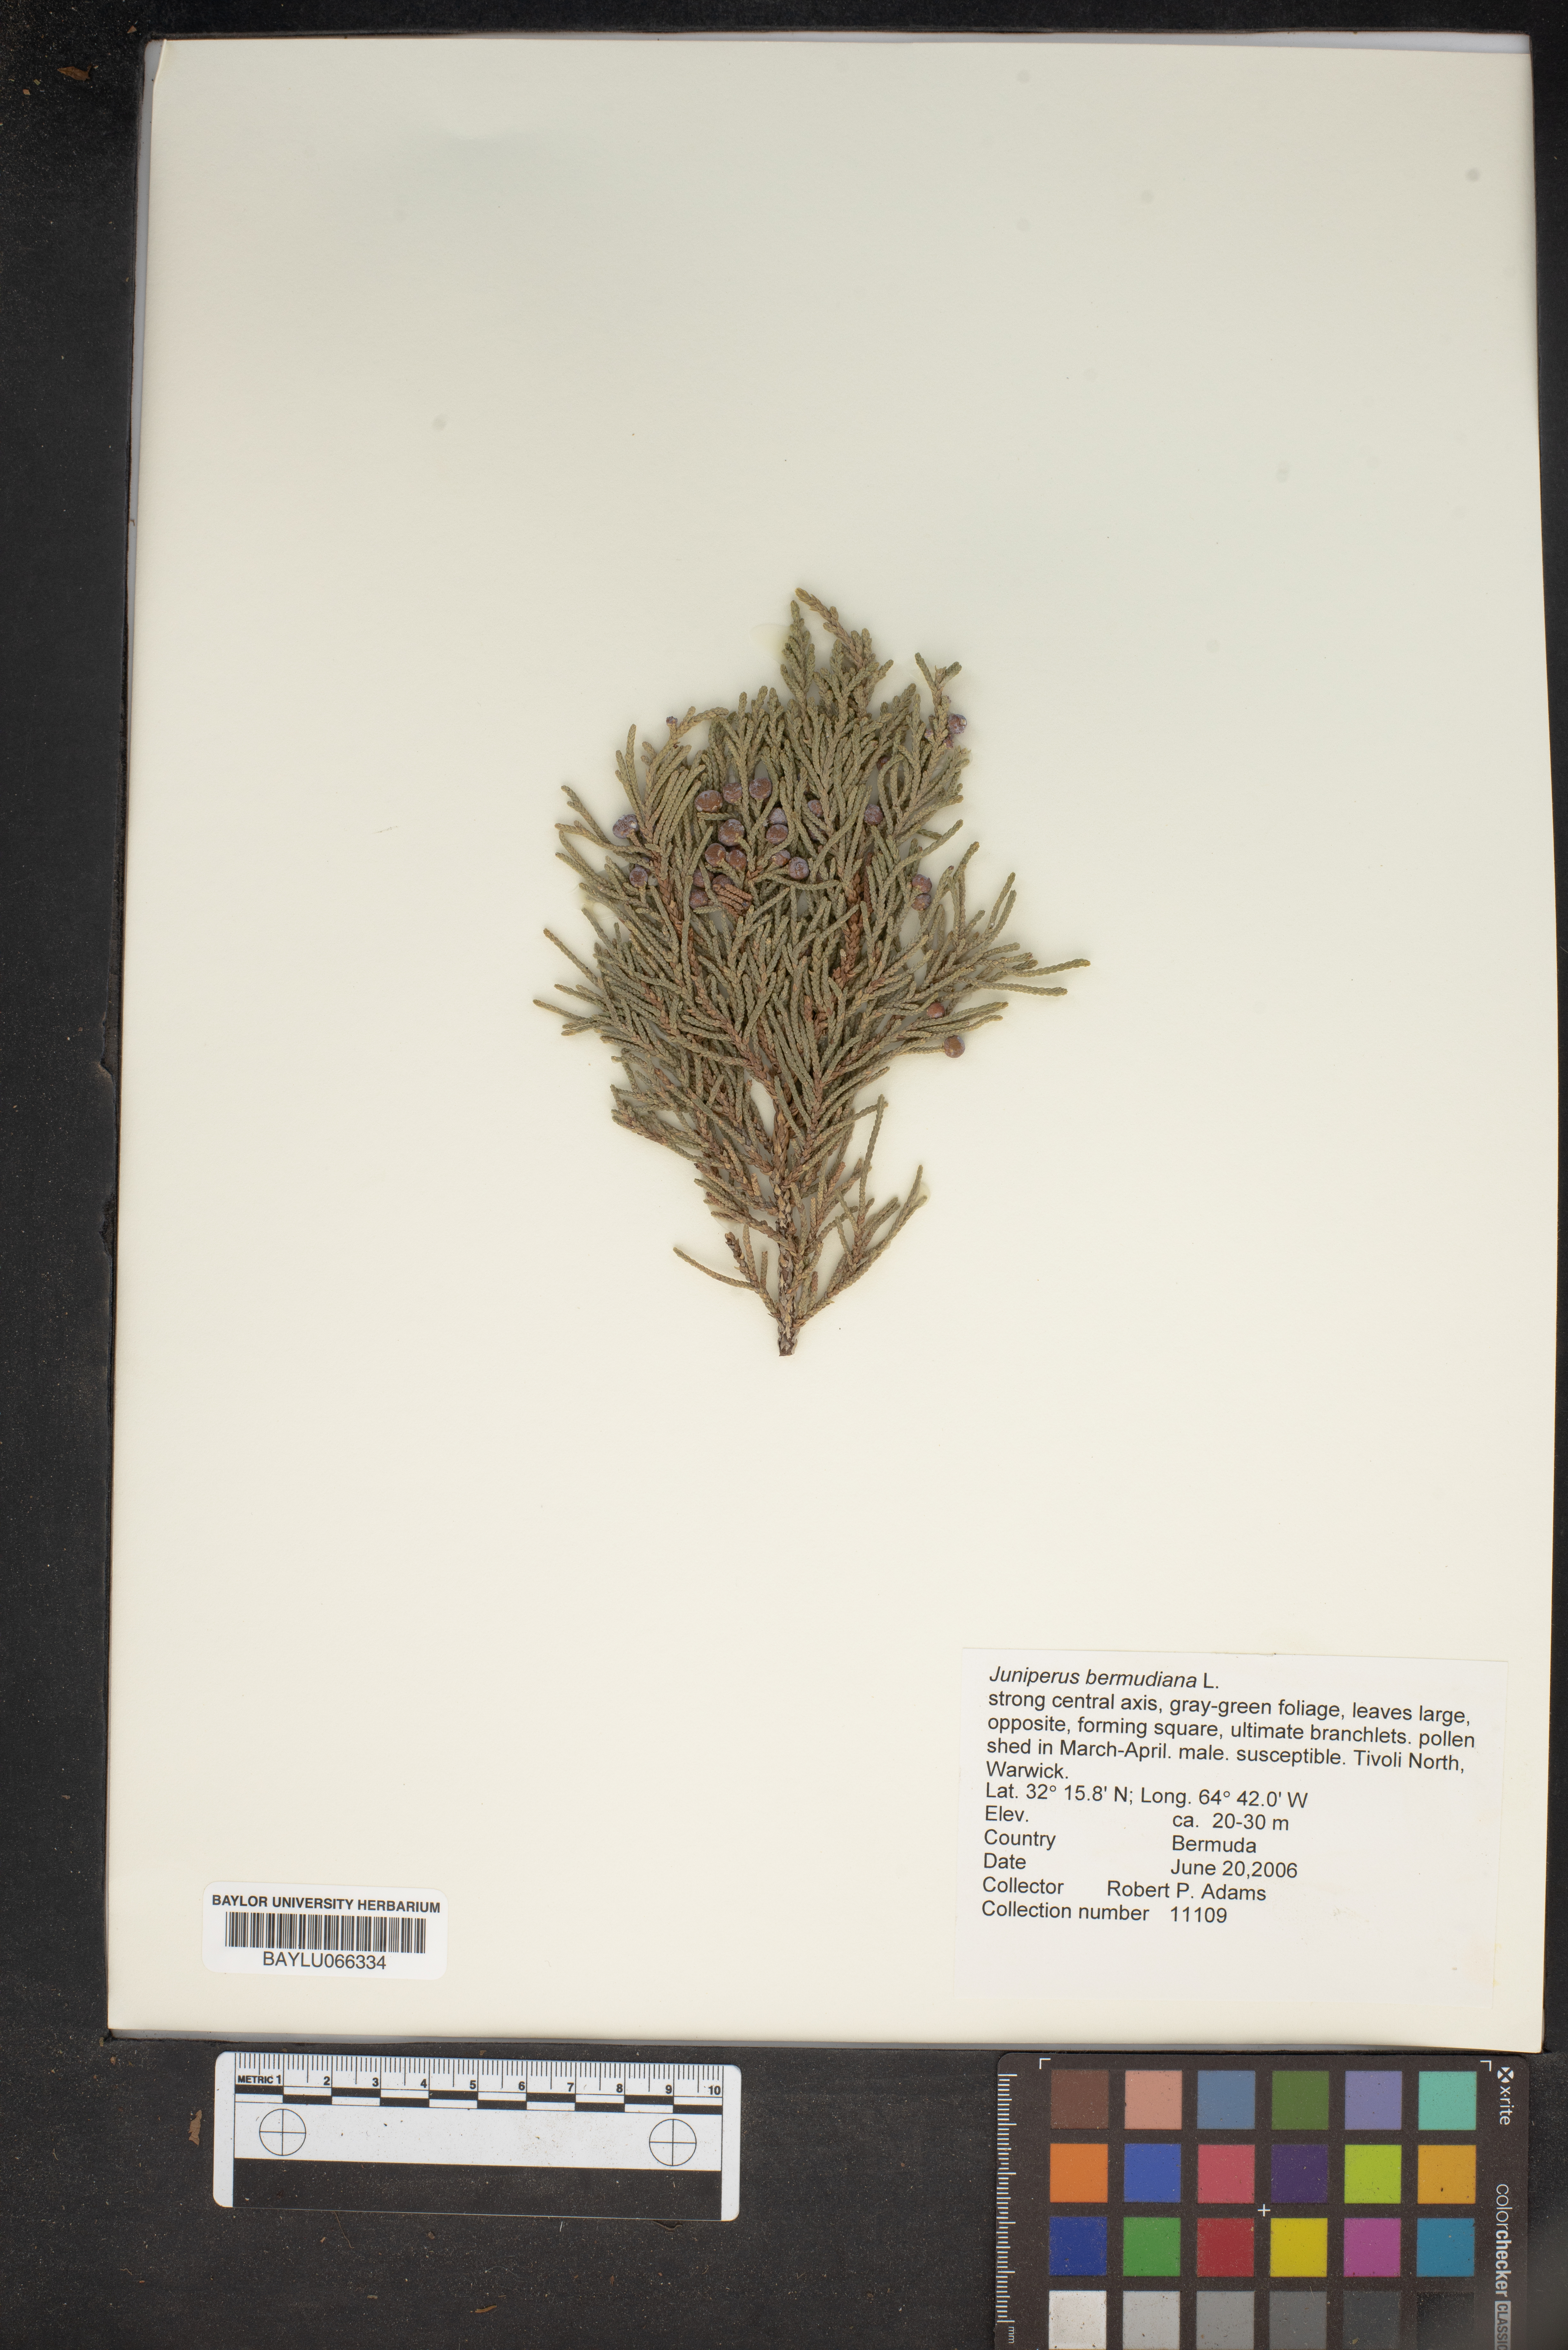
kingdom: Plantae
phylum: Tracheophyta
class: Pinopsida
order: Pinales
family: Cupressaceae
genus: Juniperus
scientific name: Juniperus bermudiana
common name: Bermuda juniper
